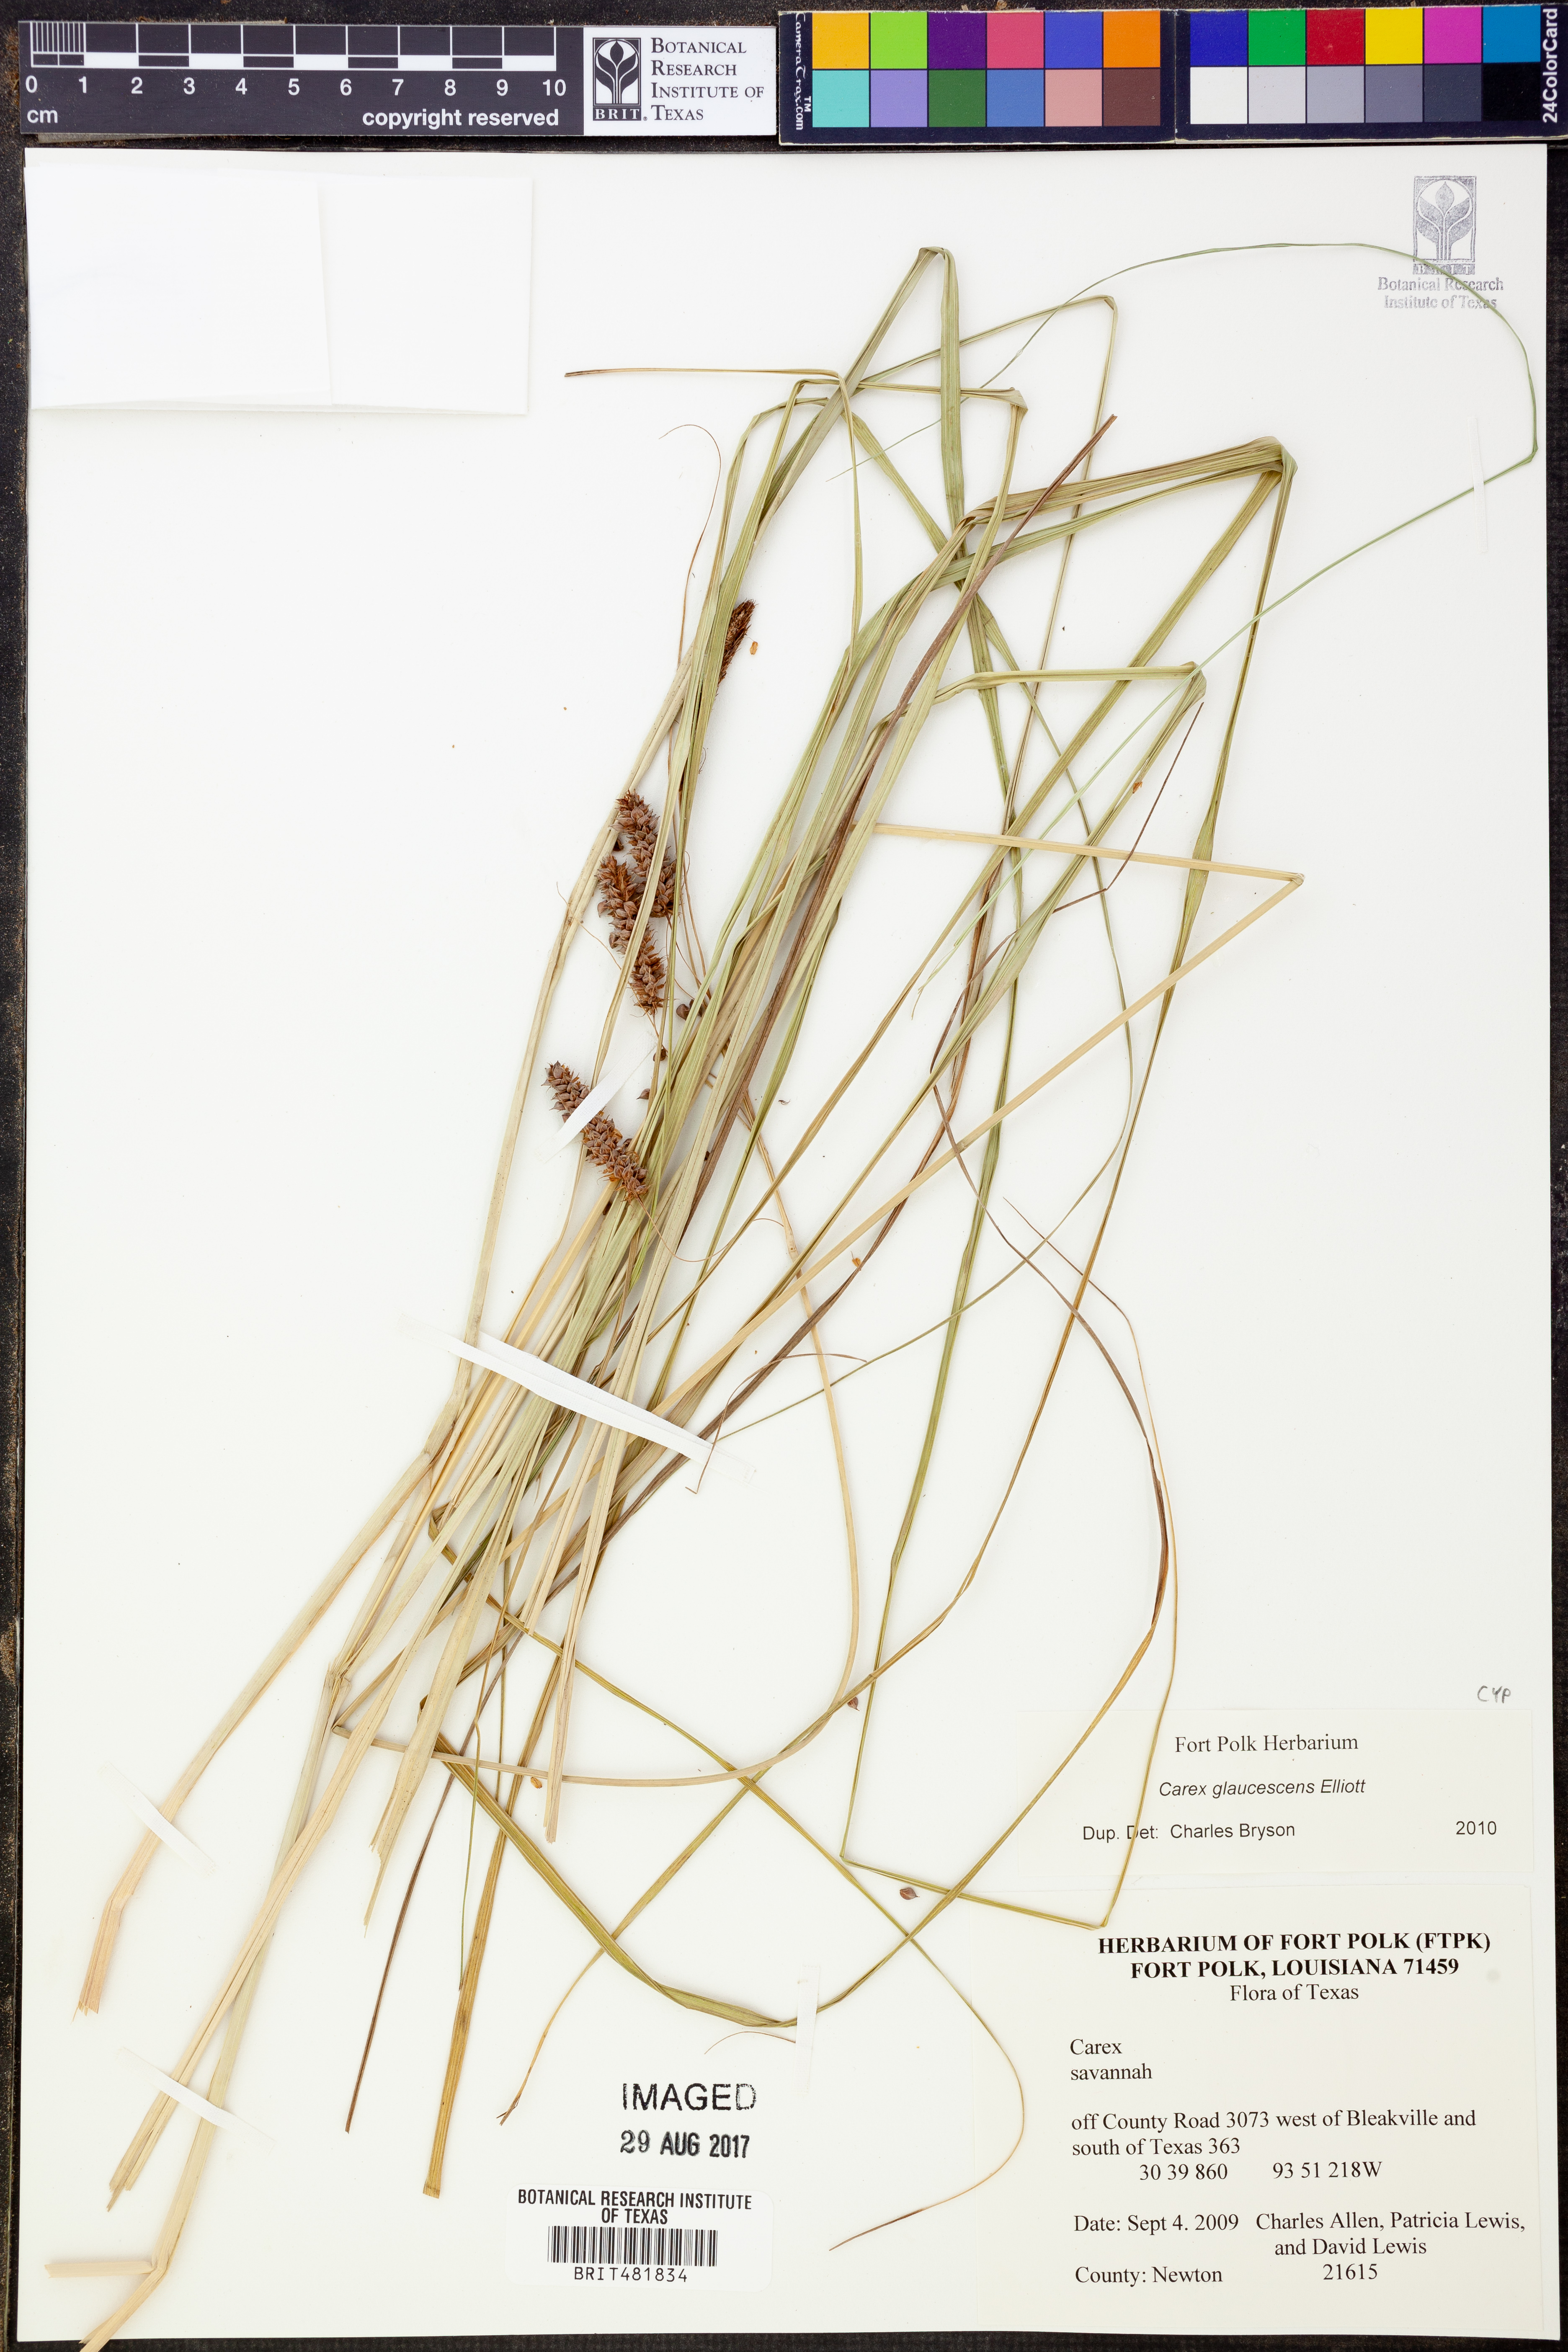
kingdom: Plantae
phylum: Tracheophyta
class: Liliopsida
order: Poales
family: Cyperaceae
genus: Carex
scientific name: Carex glaucescens
